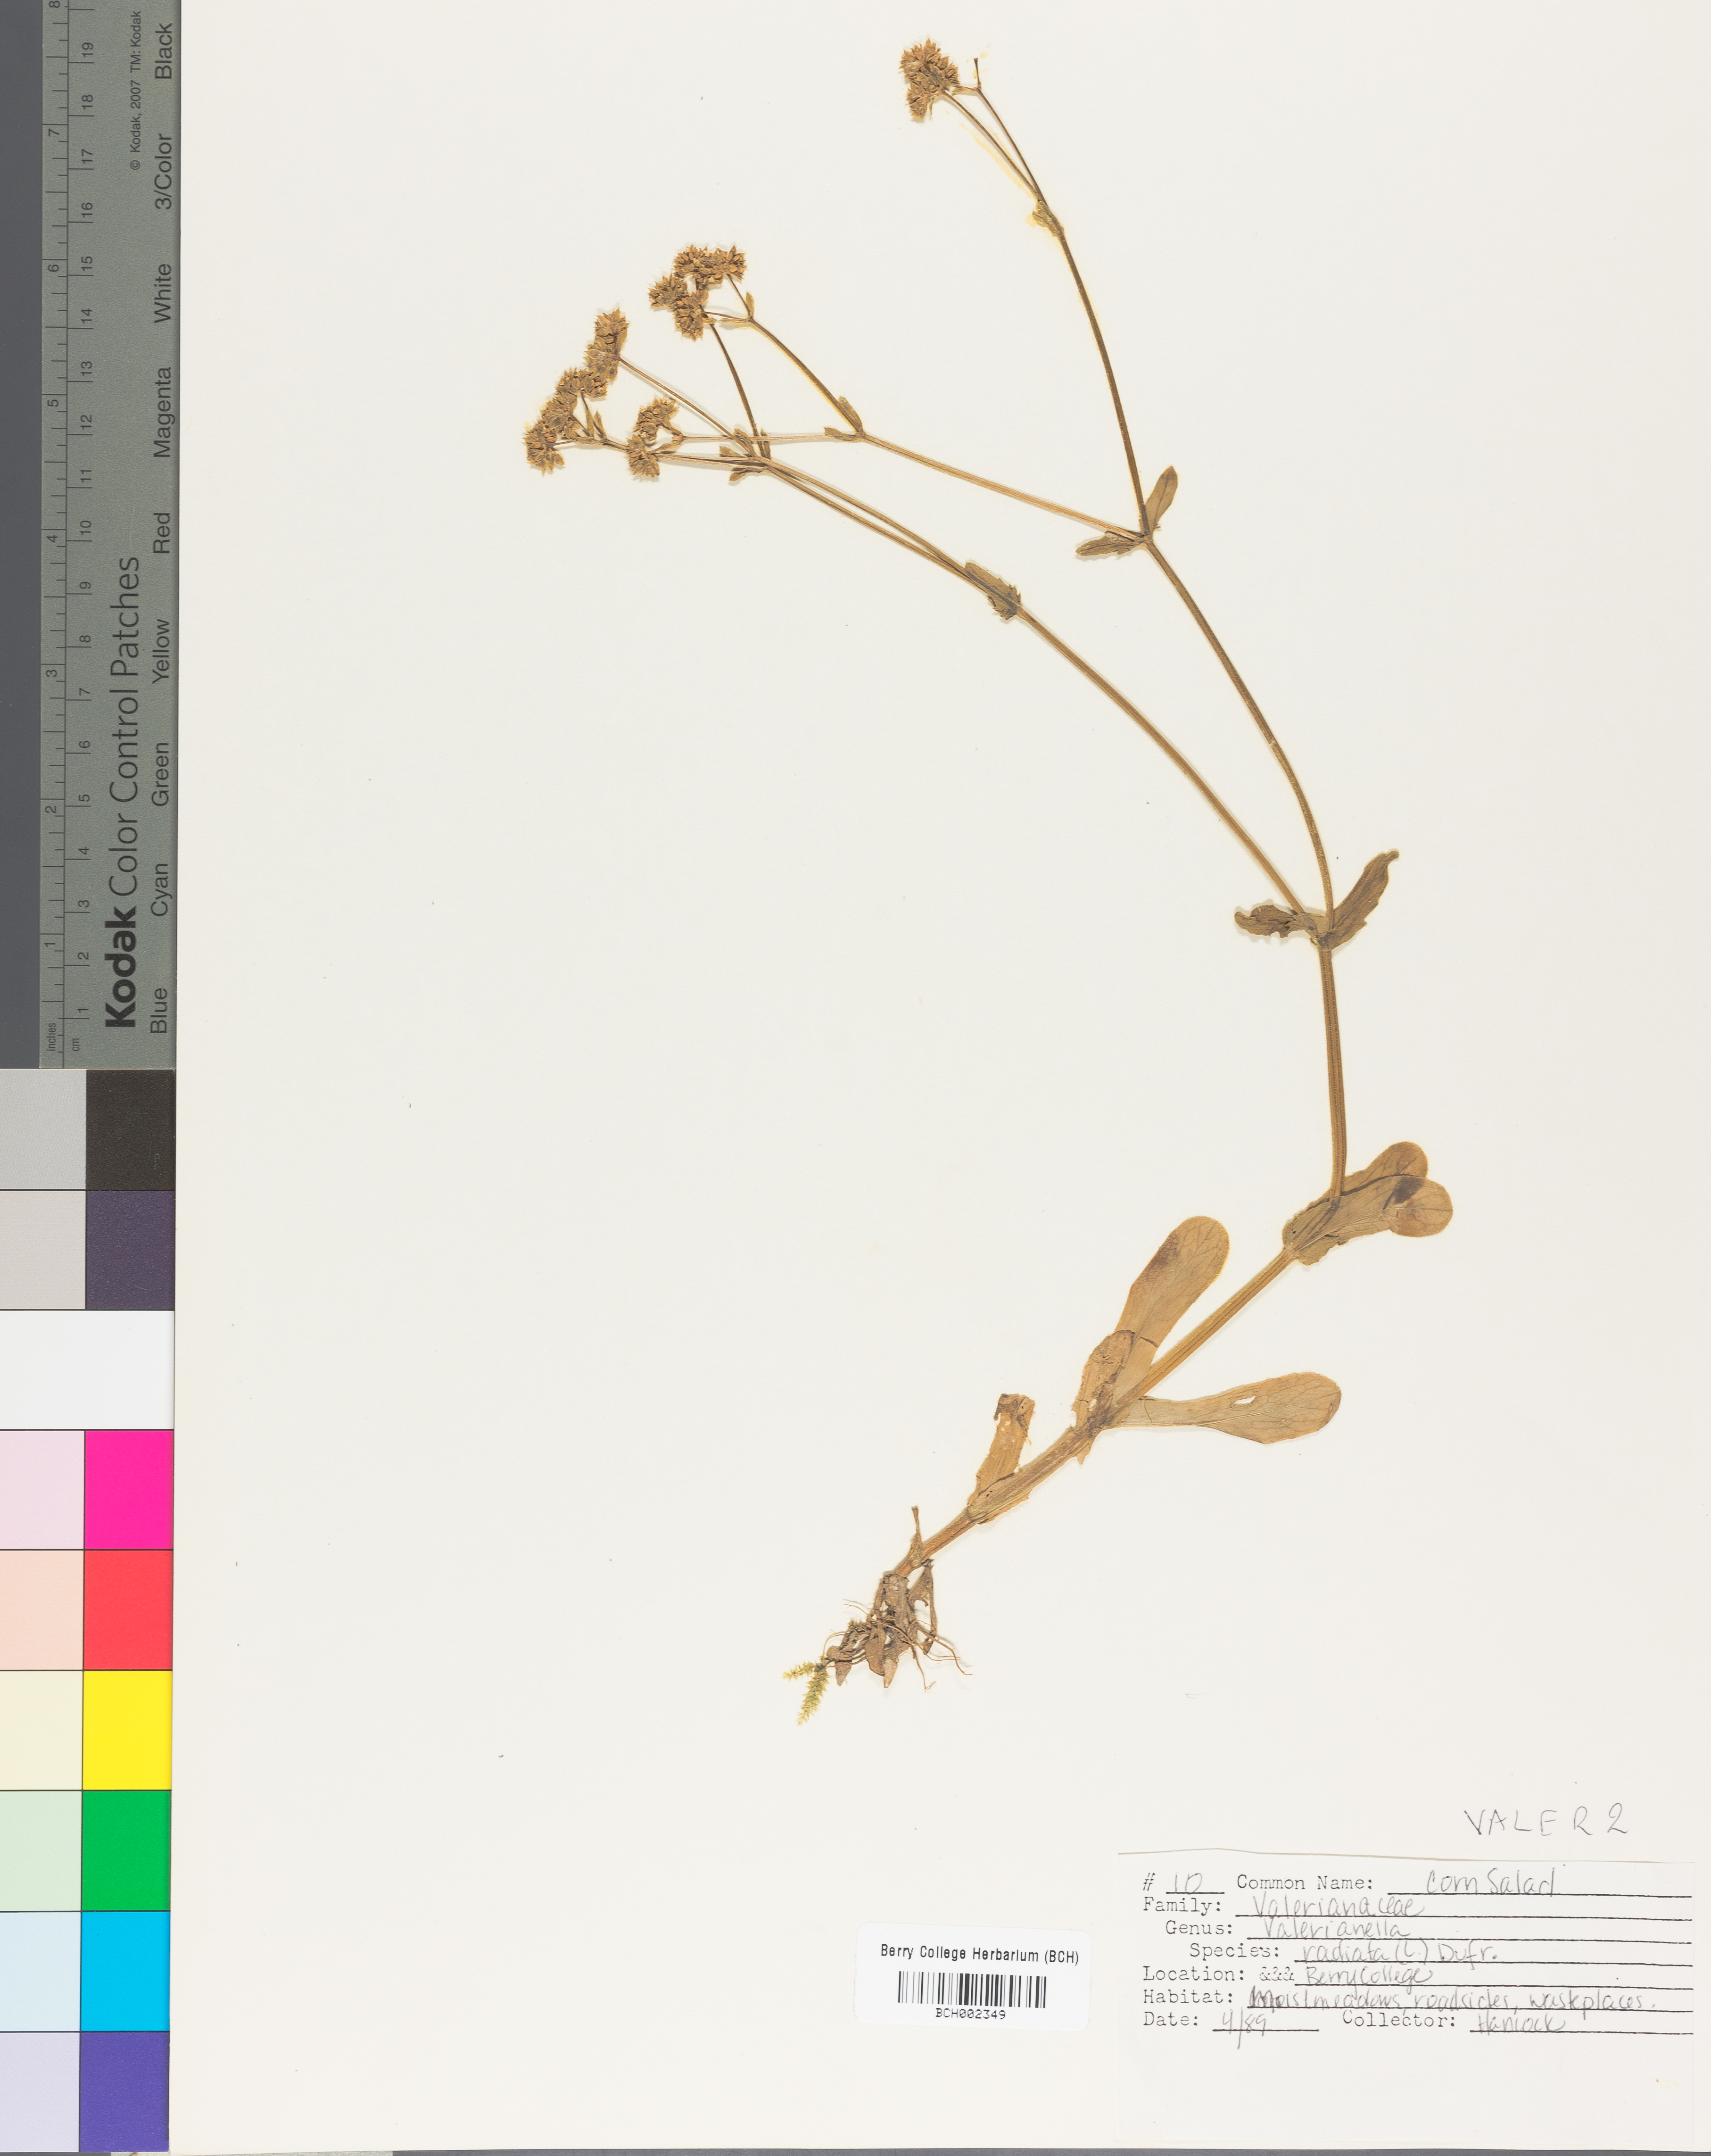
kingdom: Plantae
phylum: Tracheophyta
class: Magnoliopsida
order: Dipsacales
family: Caprifoliaceae
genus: Valerianella
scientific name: Valerianella
